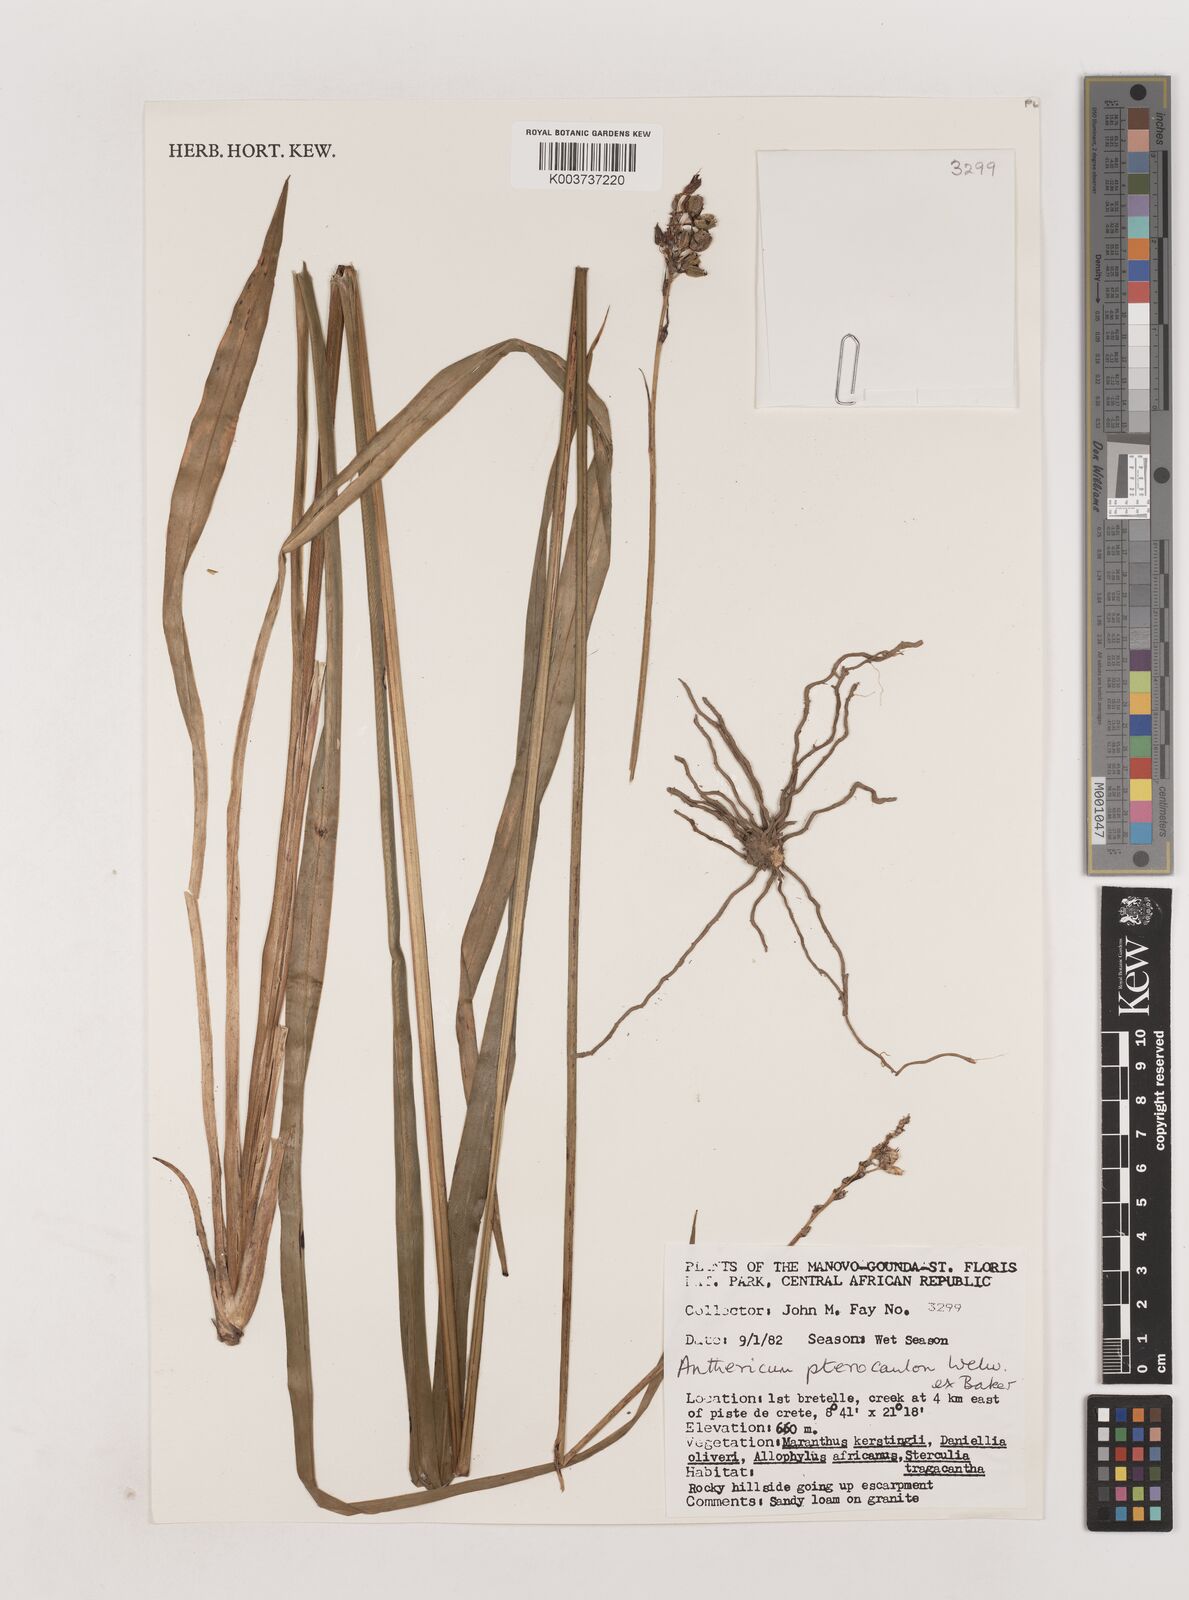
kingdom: Plantae
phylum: Tracheophyta
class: Liliopsida
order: Asparagales
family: Asparagaceae
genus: Chlorophytum
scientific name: Chlorophytum cameronii
